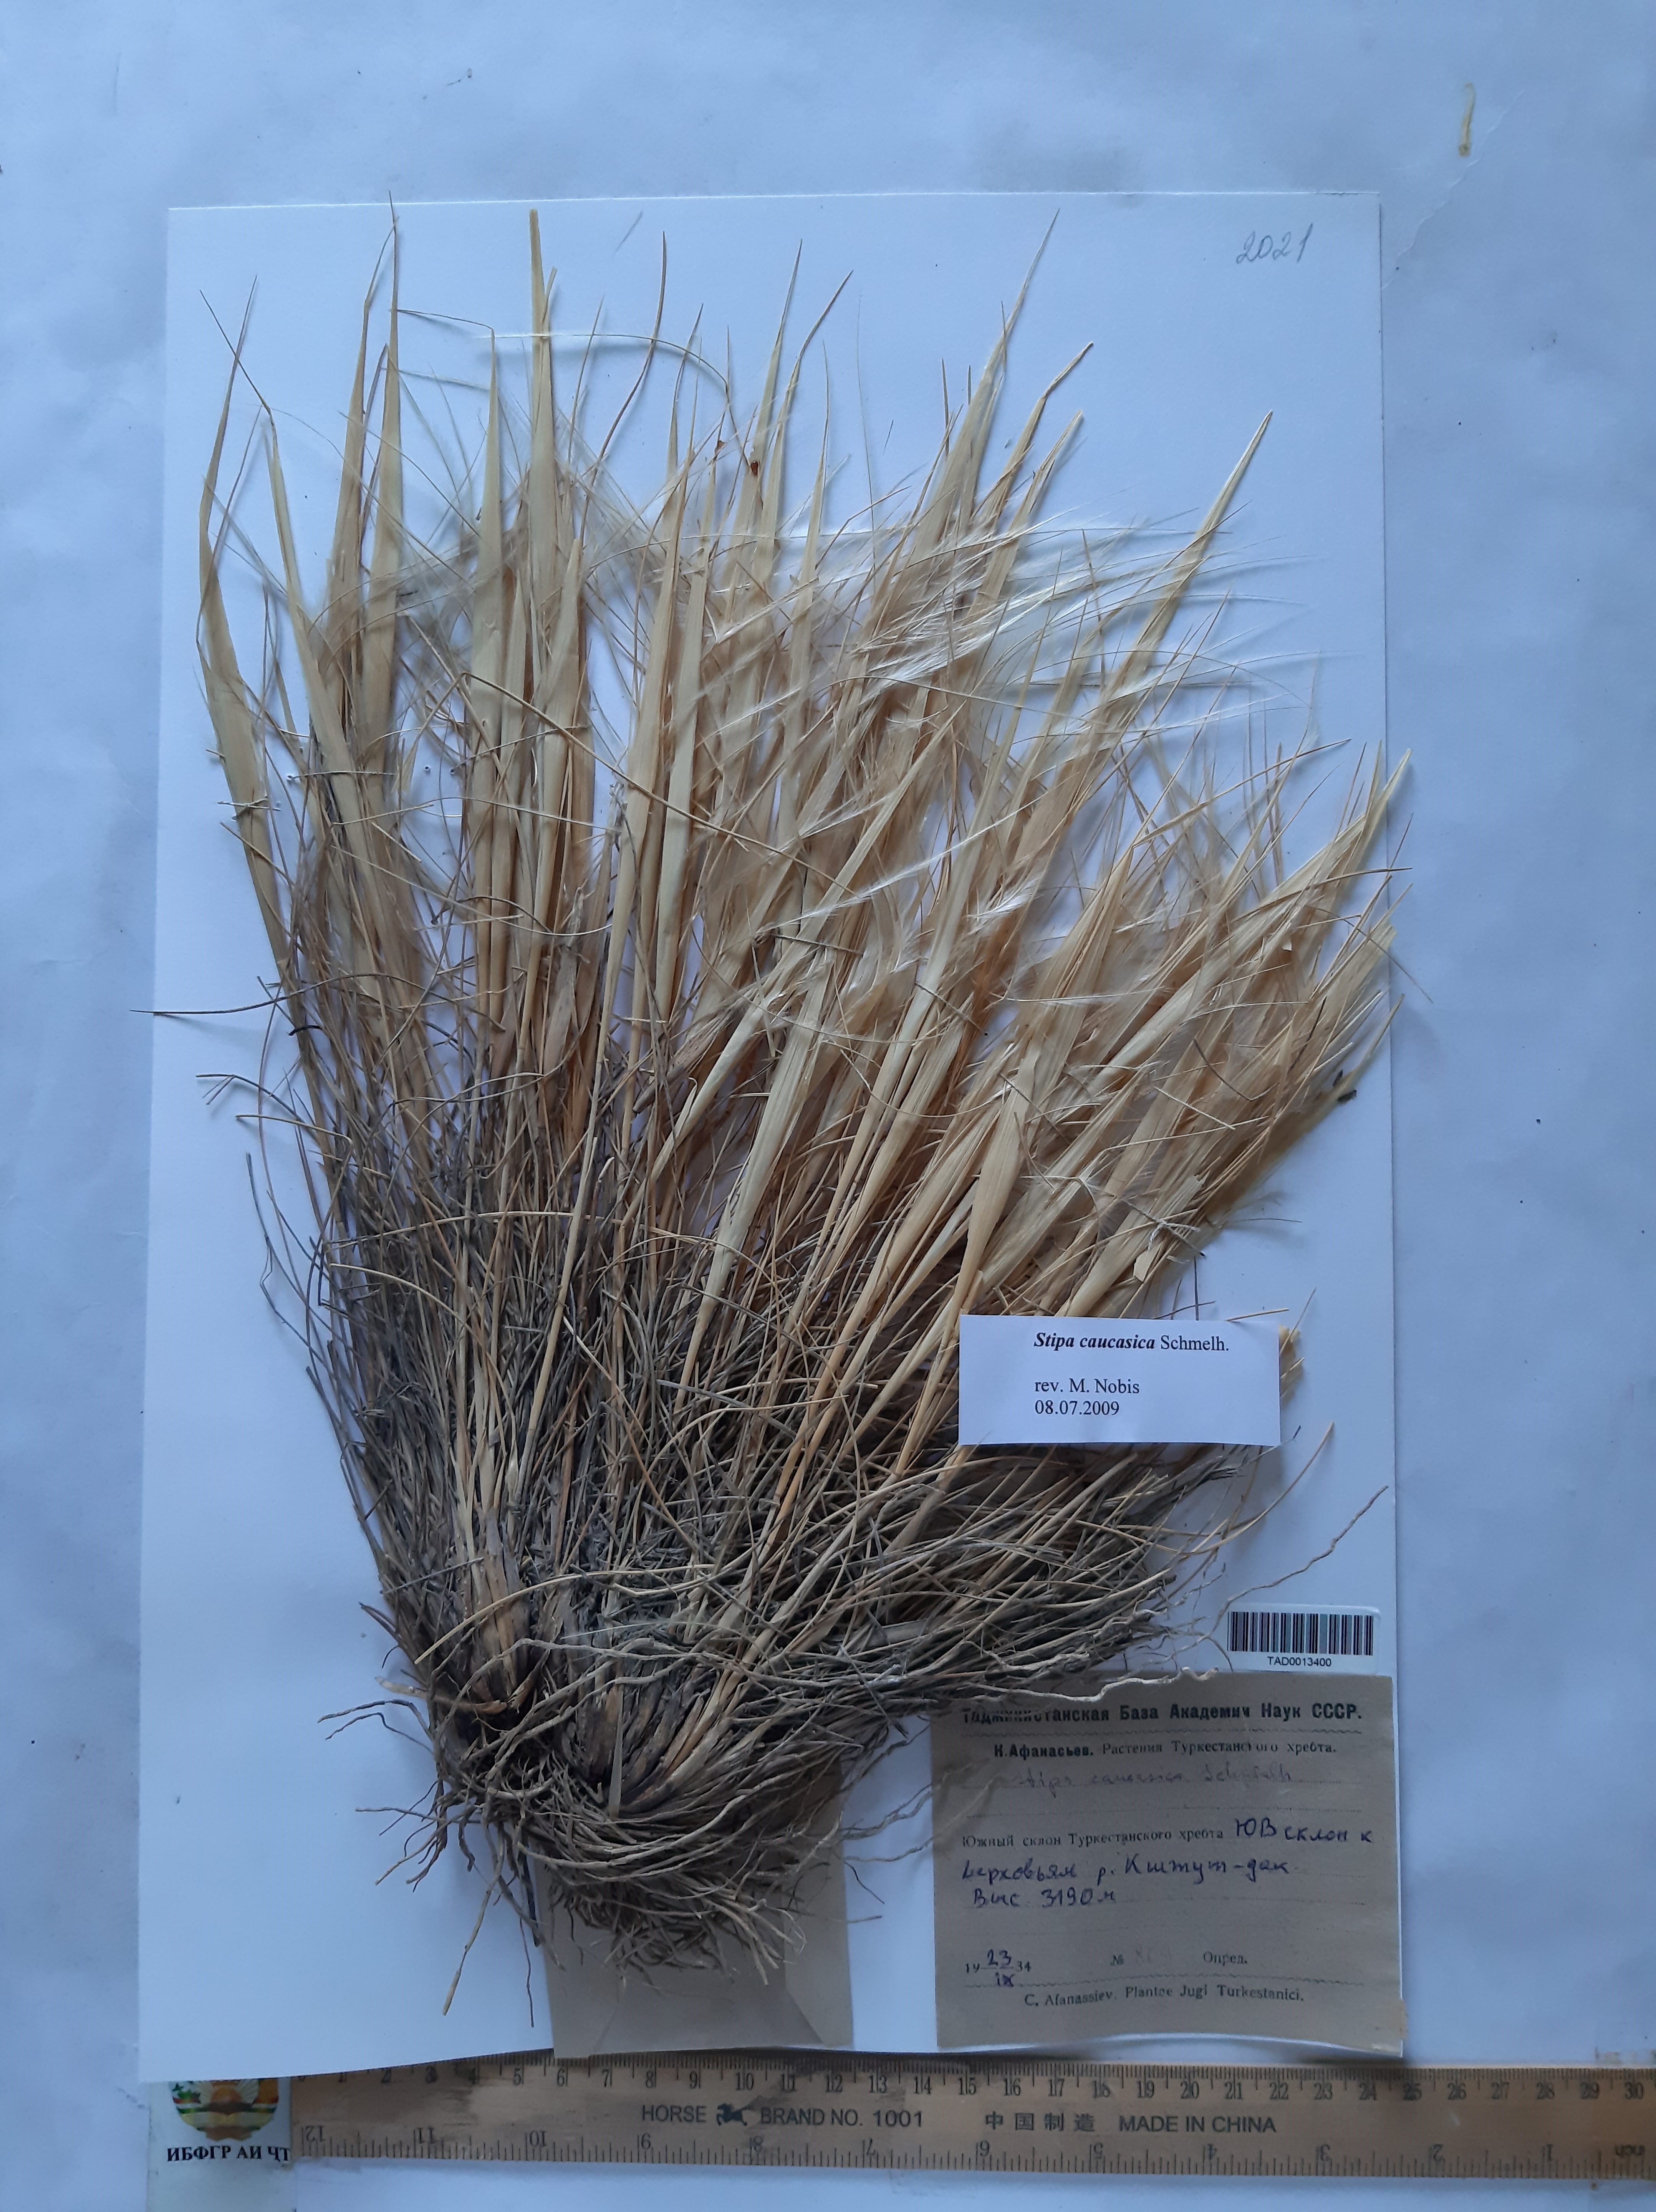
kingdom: Plantae
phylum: Tracheophyta
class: Liliopsida
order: Poales
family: Poaceae
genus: Stipa
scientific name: Stipa caucasica
